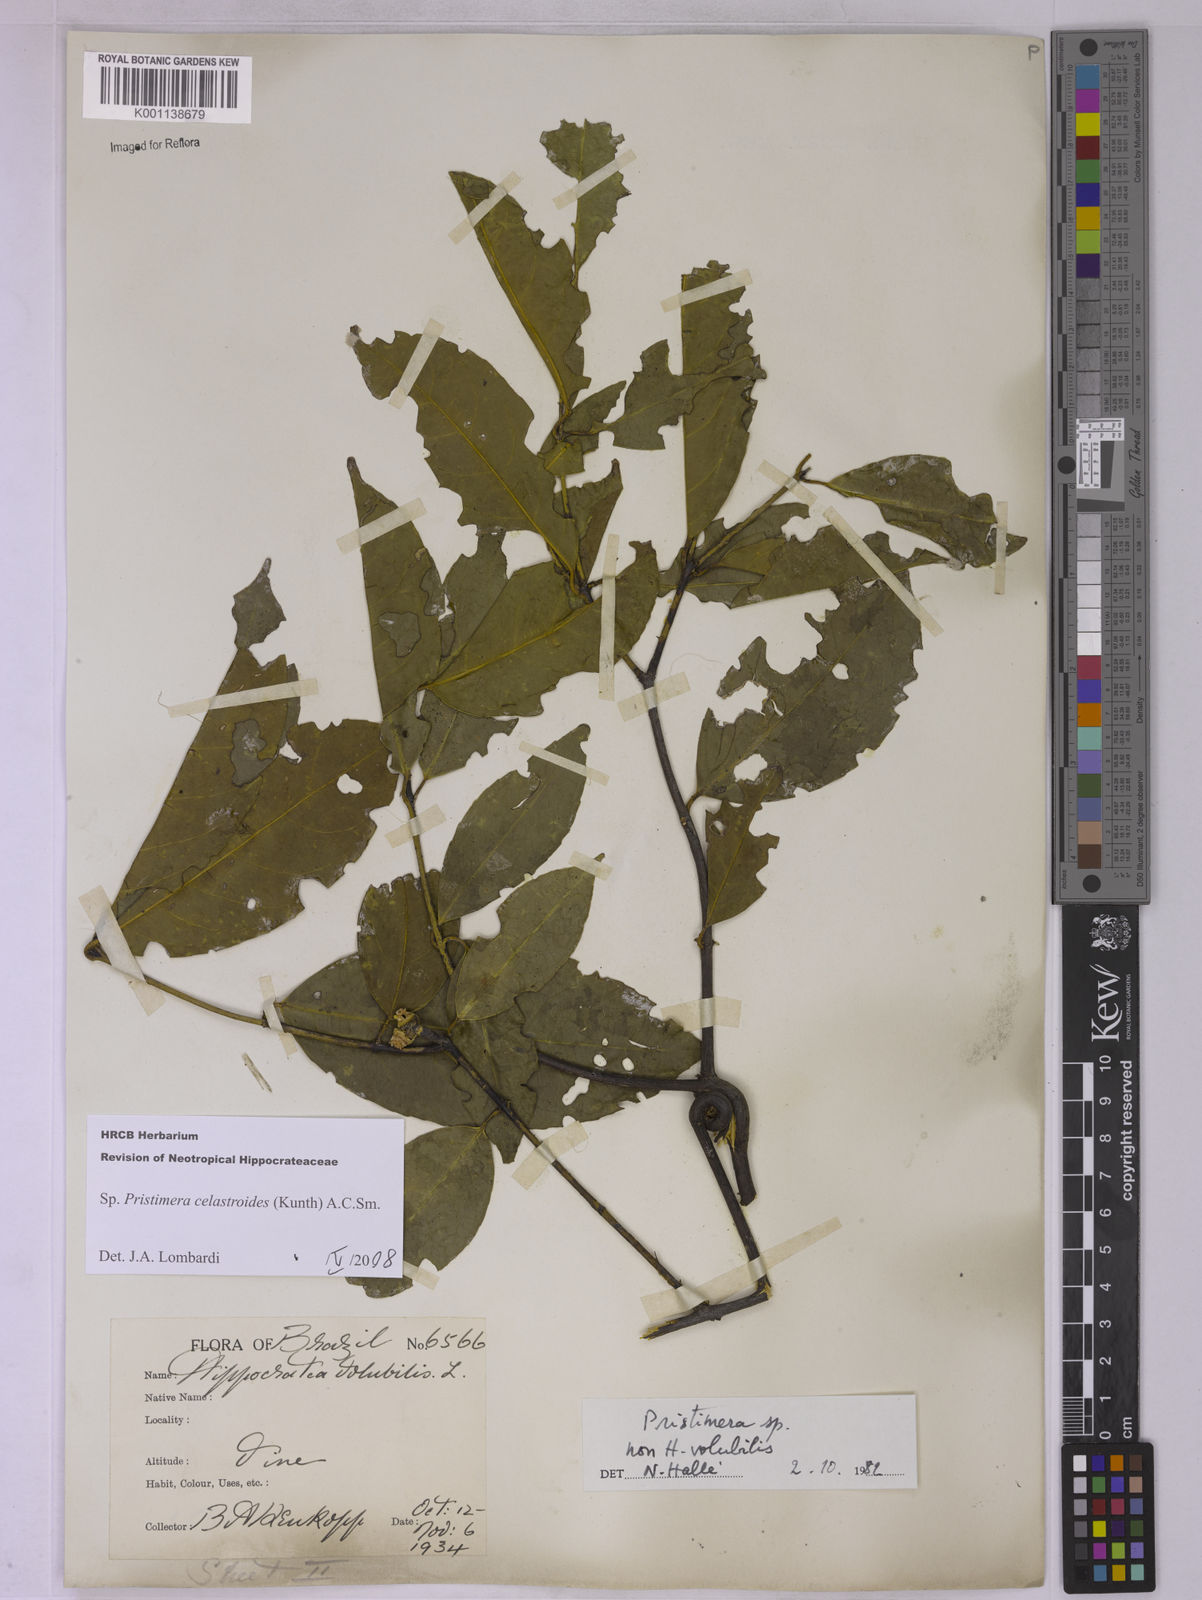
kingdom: Plantae
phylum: Tracheophyta
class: Magnoliopsida
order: Celastrales
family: Celastraceae
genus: Pristimera
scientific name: Pristimera celastroides
